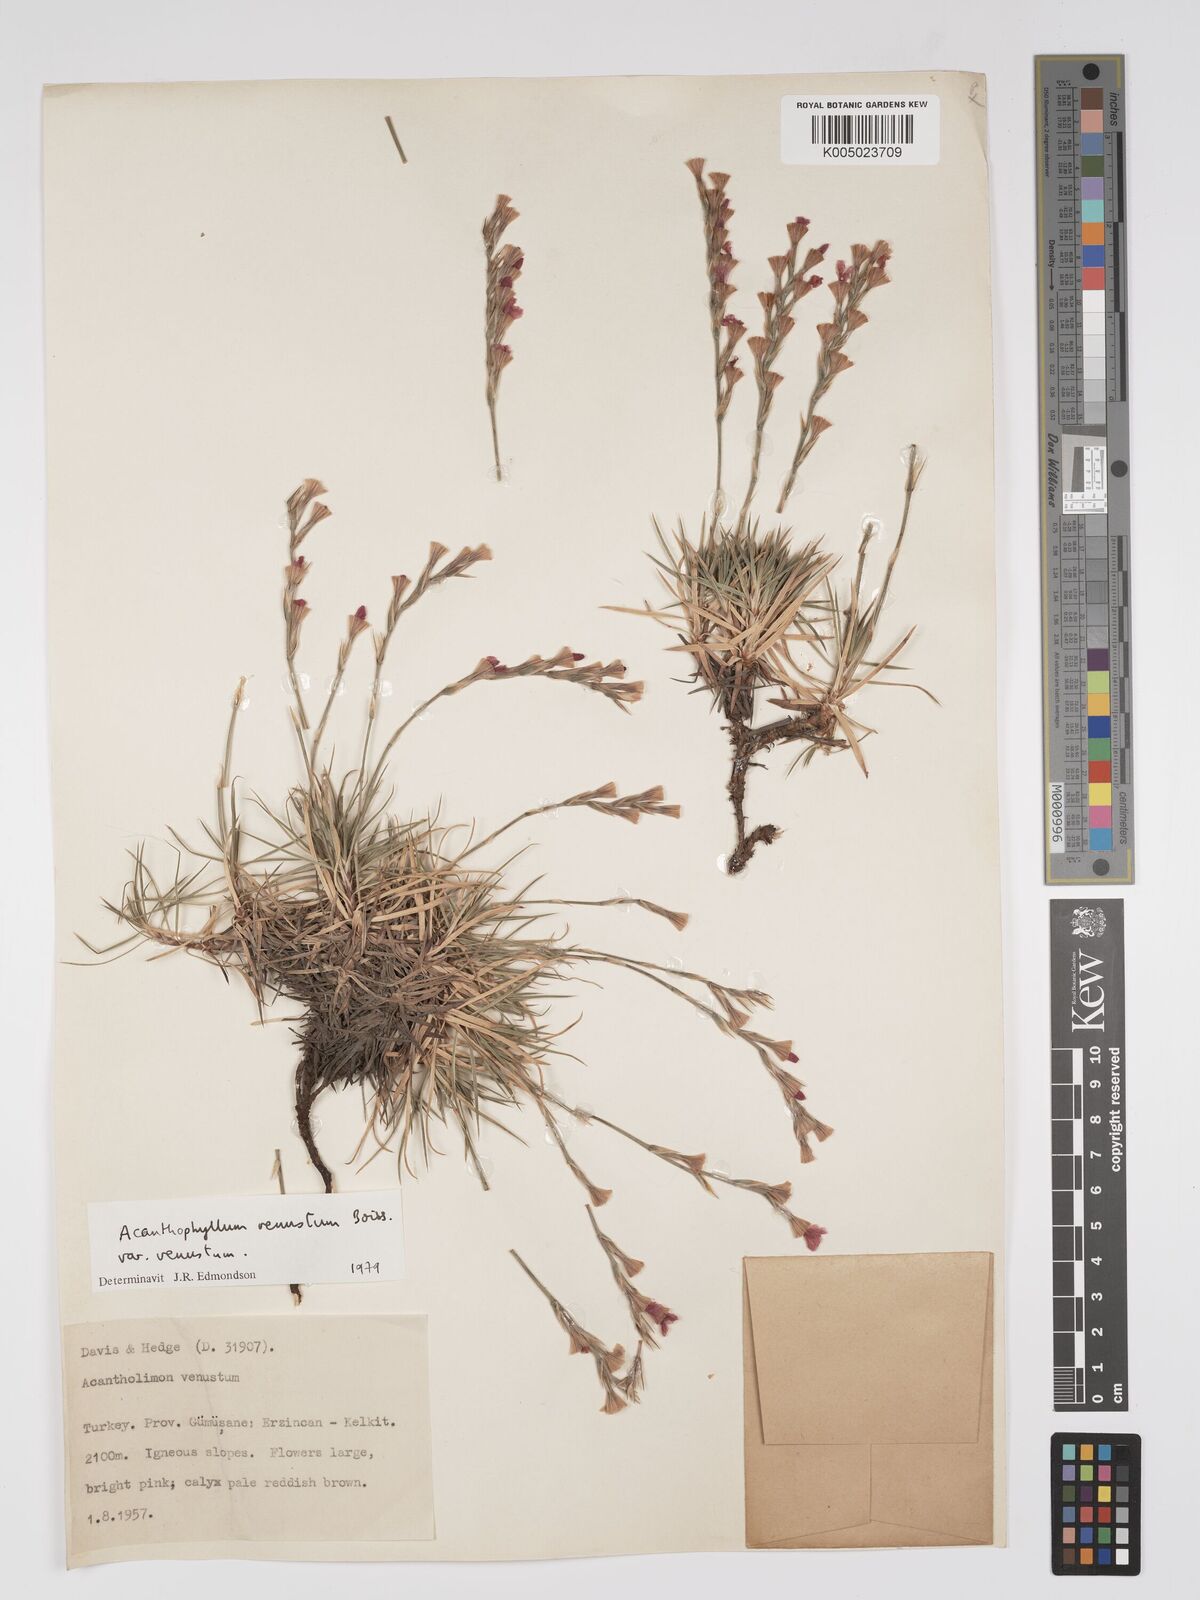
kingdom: Plantae
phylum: Tracheophyta
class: Magnoliopsida
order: Caryophyllales
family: Plumbaginaceae
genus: Acantholimon
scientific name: Acantholimon venustum
